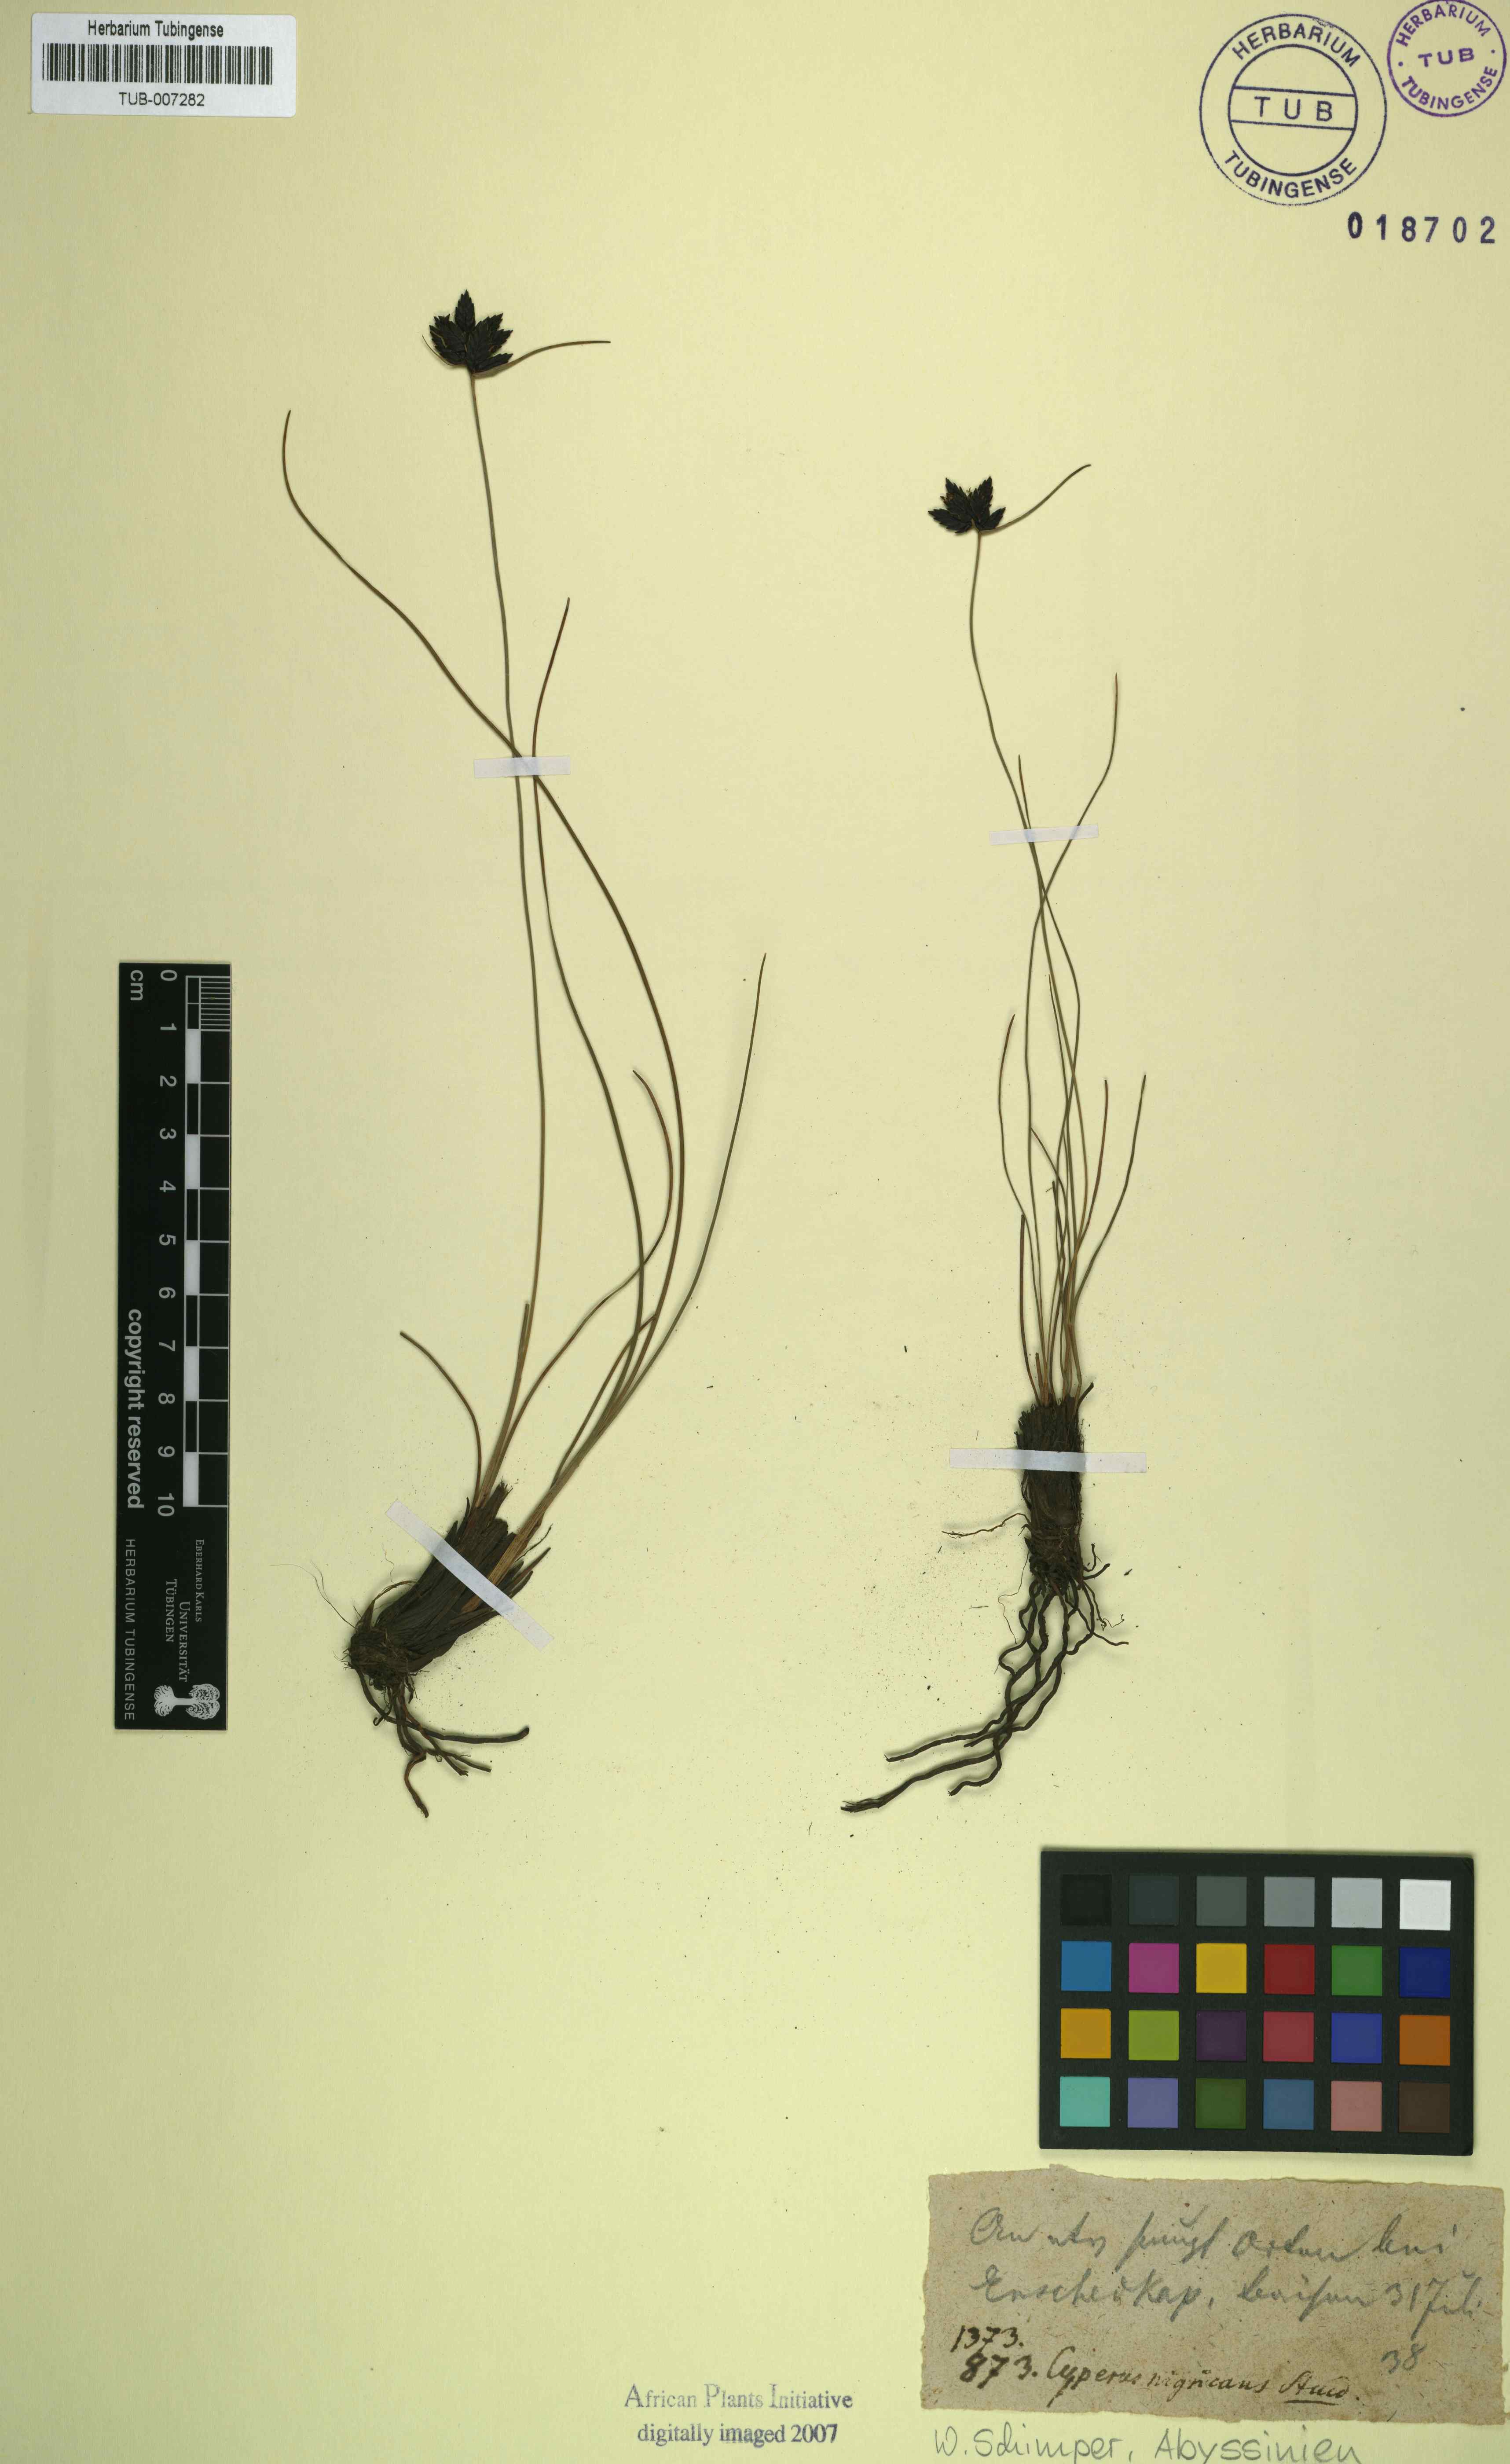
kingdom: Plantae
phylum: Tracheophyta
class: Liliopsida
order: Poales
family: Cyperaceae
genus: Cyperus
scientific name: Cyperus nigricans
